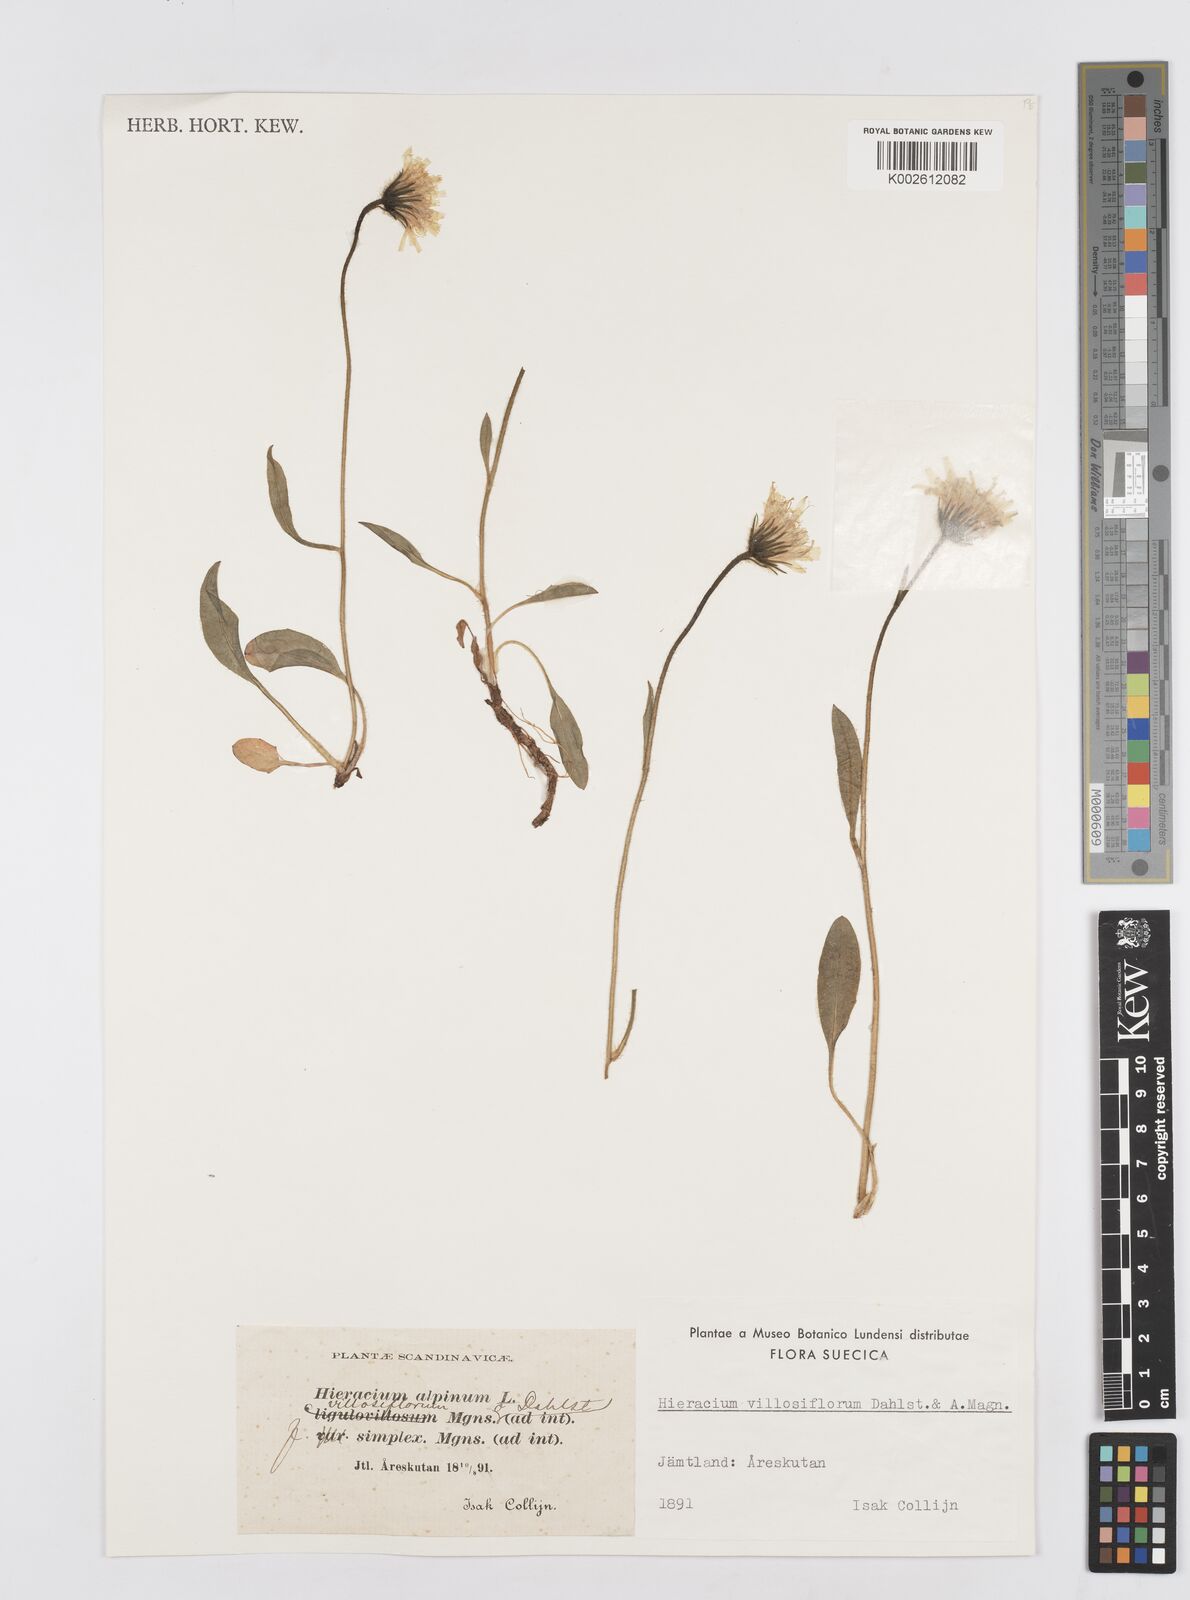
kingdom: Plantae
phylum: Tracheophyta
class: Magnoliopsida
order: Asterales
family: Asteraceae
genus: Hieracium
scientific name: Hieracium alpinum
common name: Alpine hawkweed
